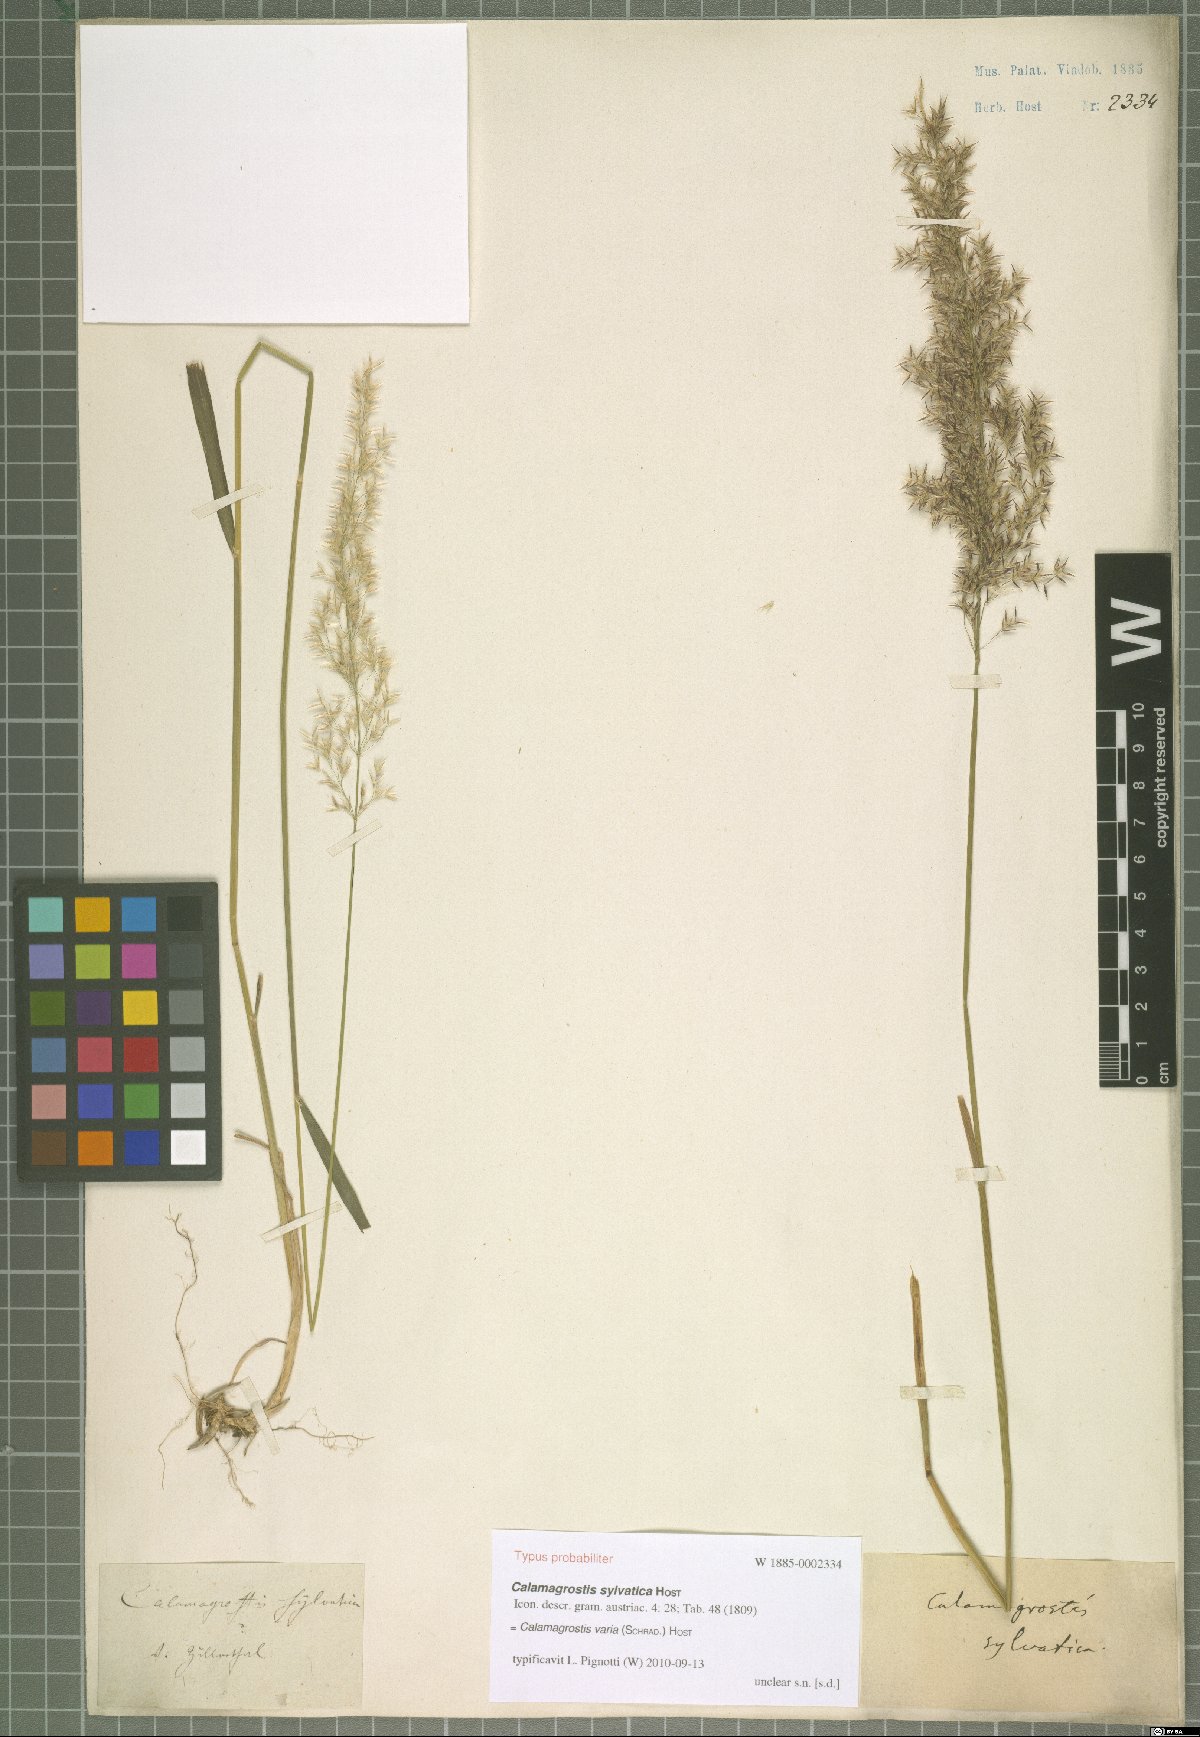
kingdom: Plantae
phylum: Tracheophyta
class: Liliopsida
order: Poales
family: Poaceae
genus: Calamagrostis
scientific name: Calamagrostis varia
